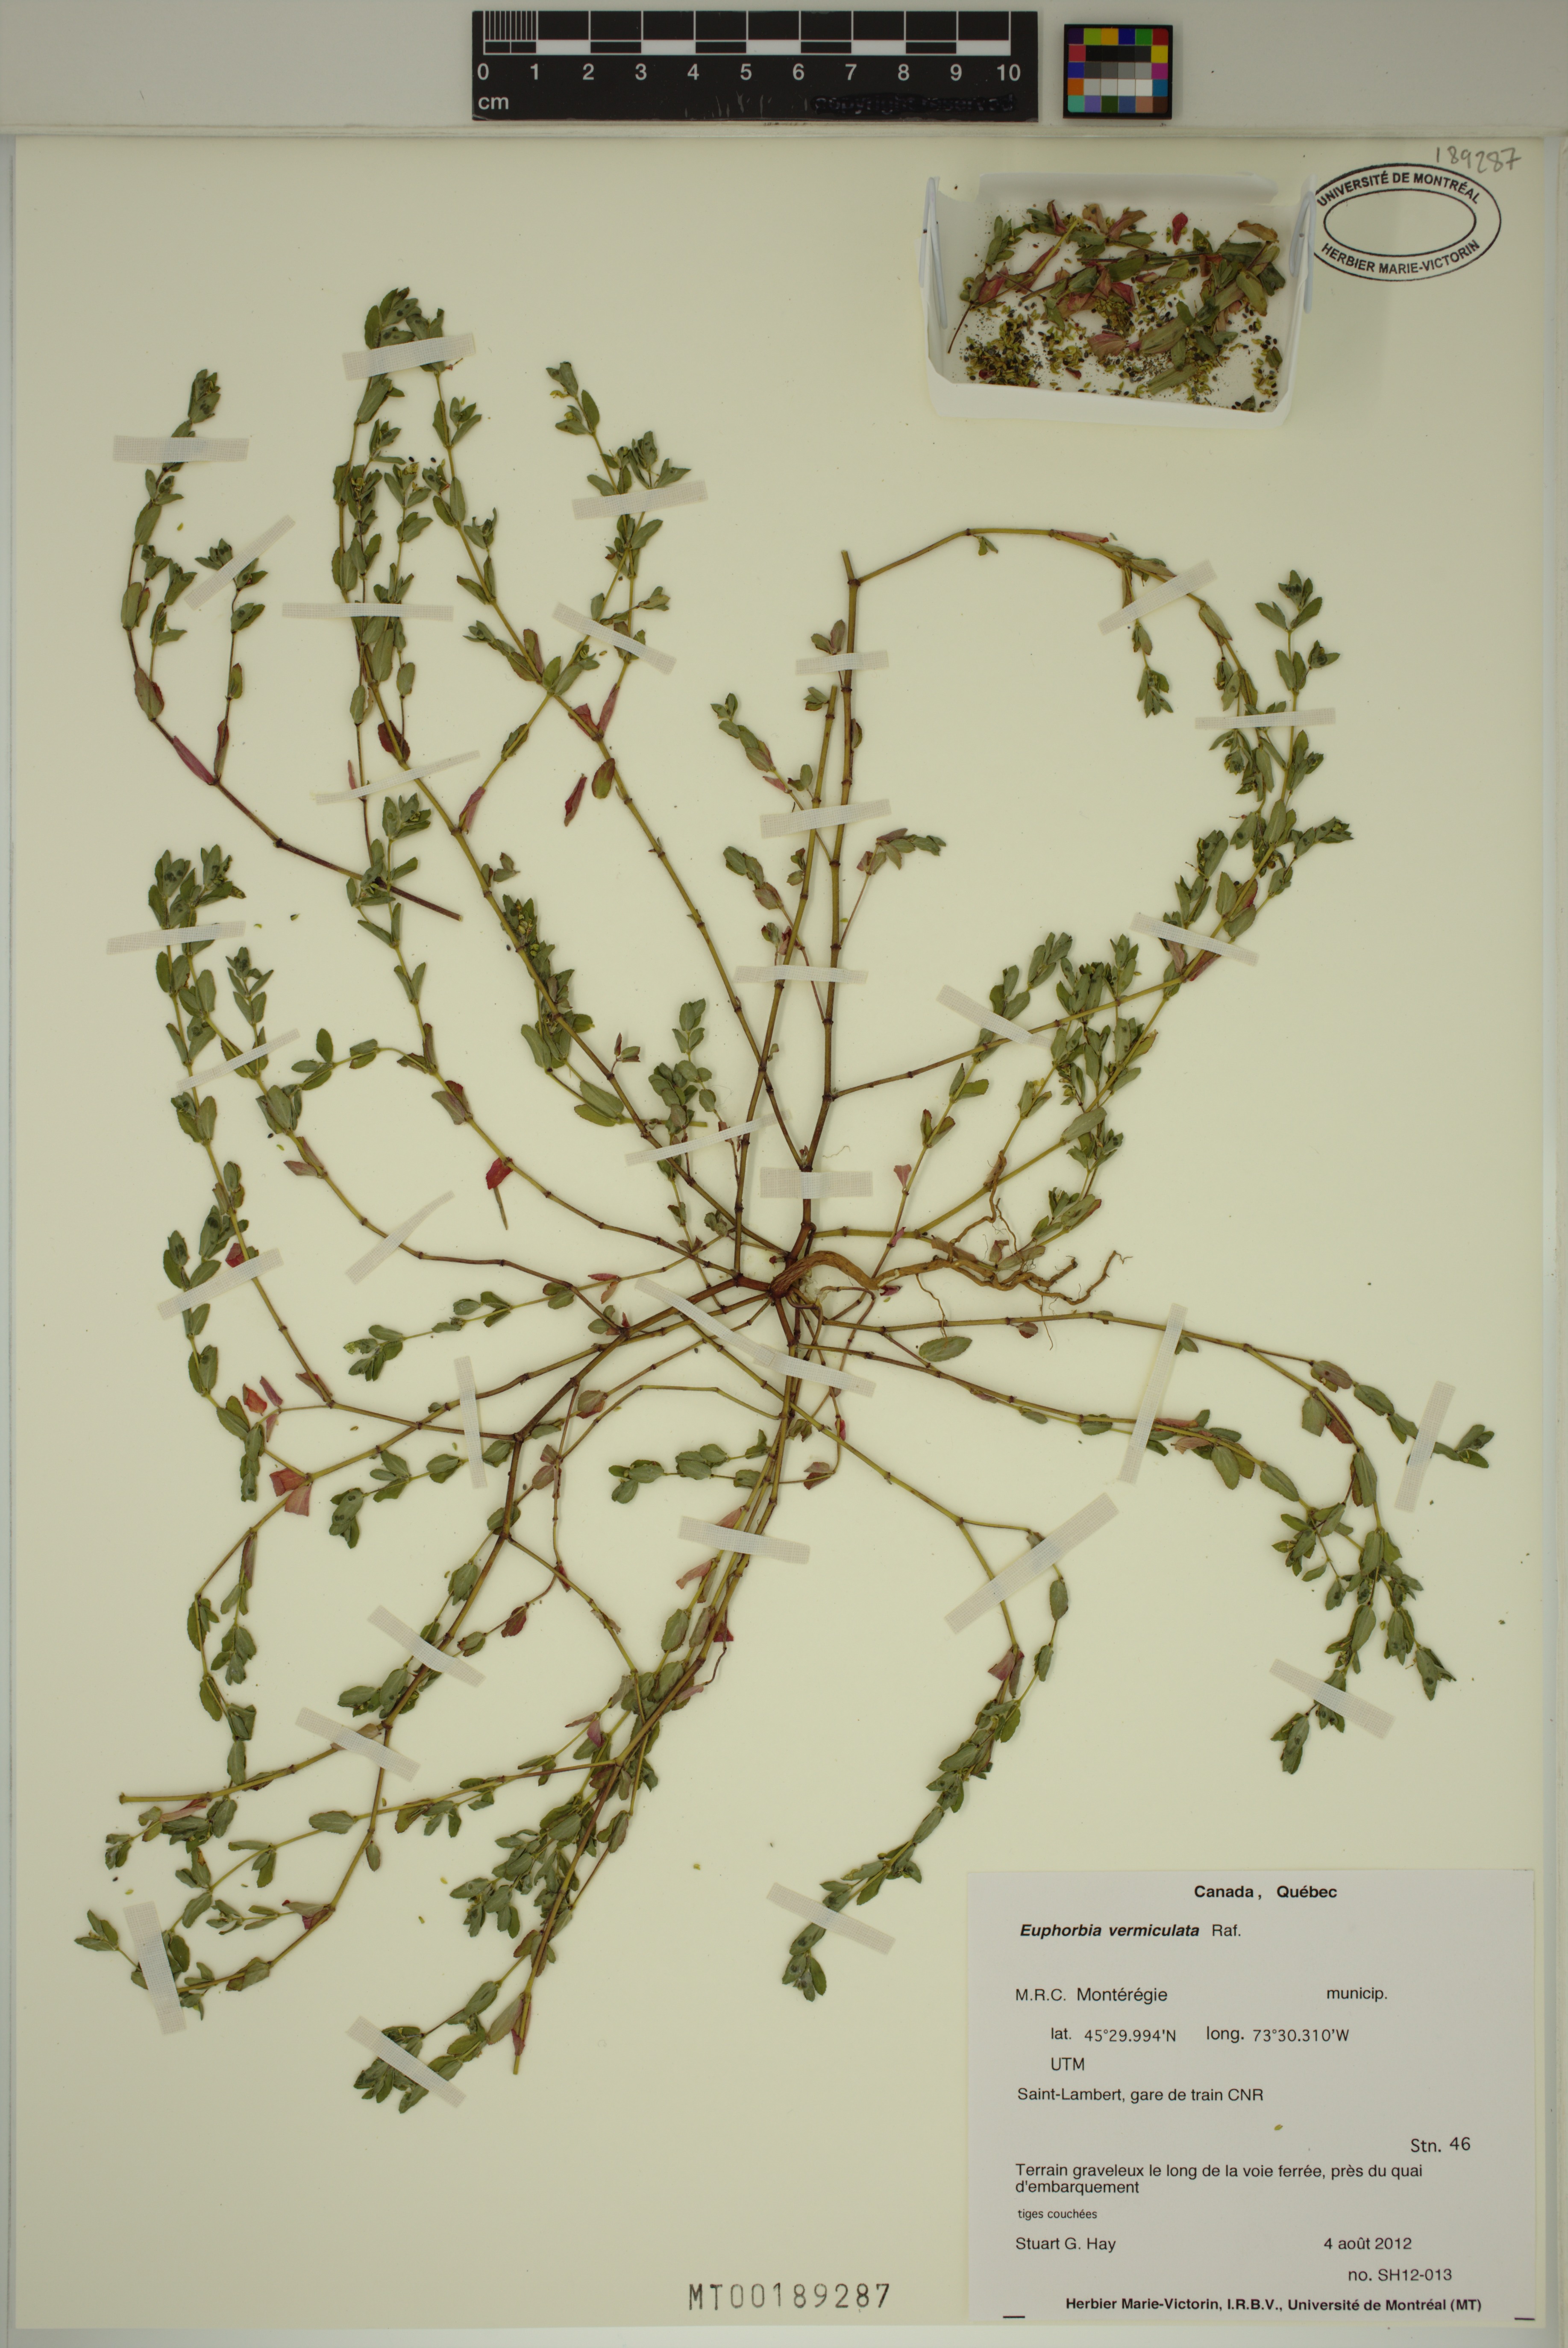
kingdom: Plantae
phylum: Tracheophyta
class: Magnoliopsida
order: Malpighiales
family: Euphorbiaceae
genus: Euphorbia
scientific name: Euphorbia vermiculata
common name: Hairy spurge
